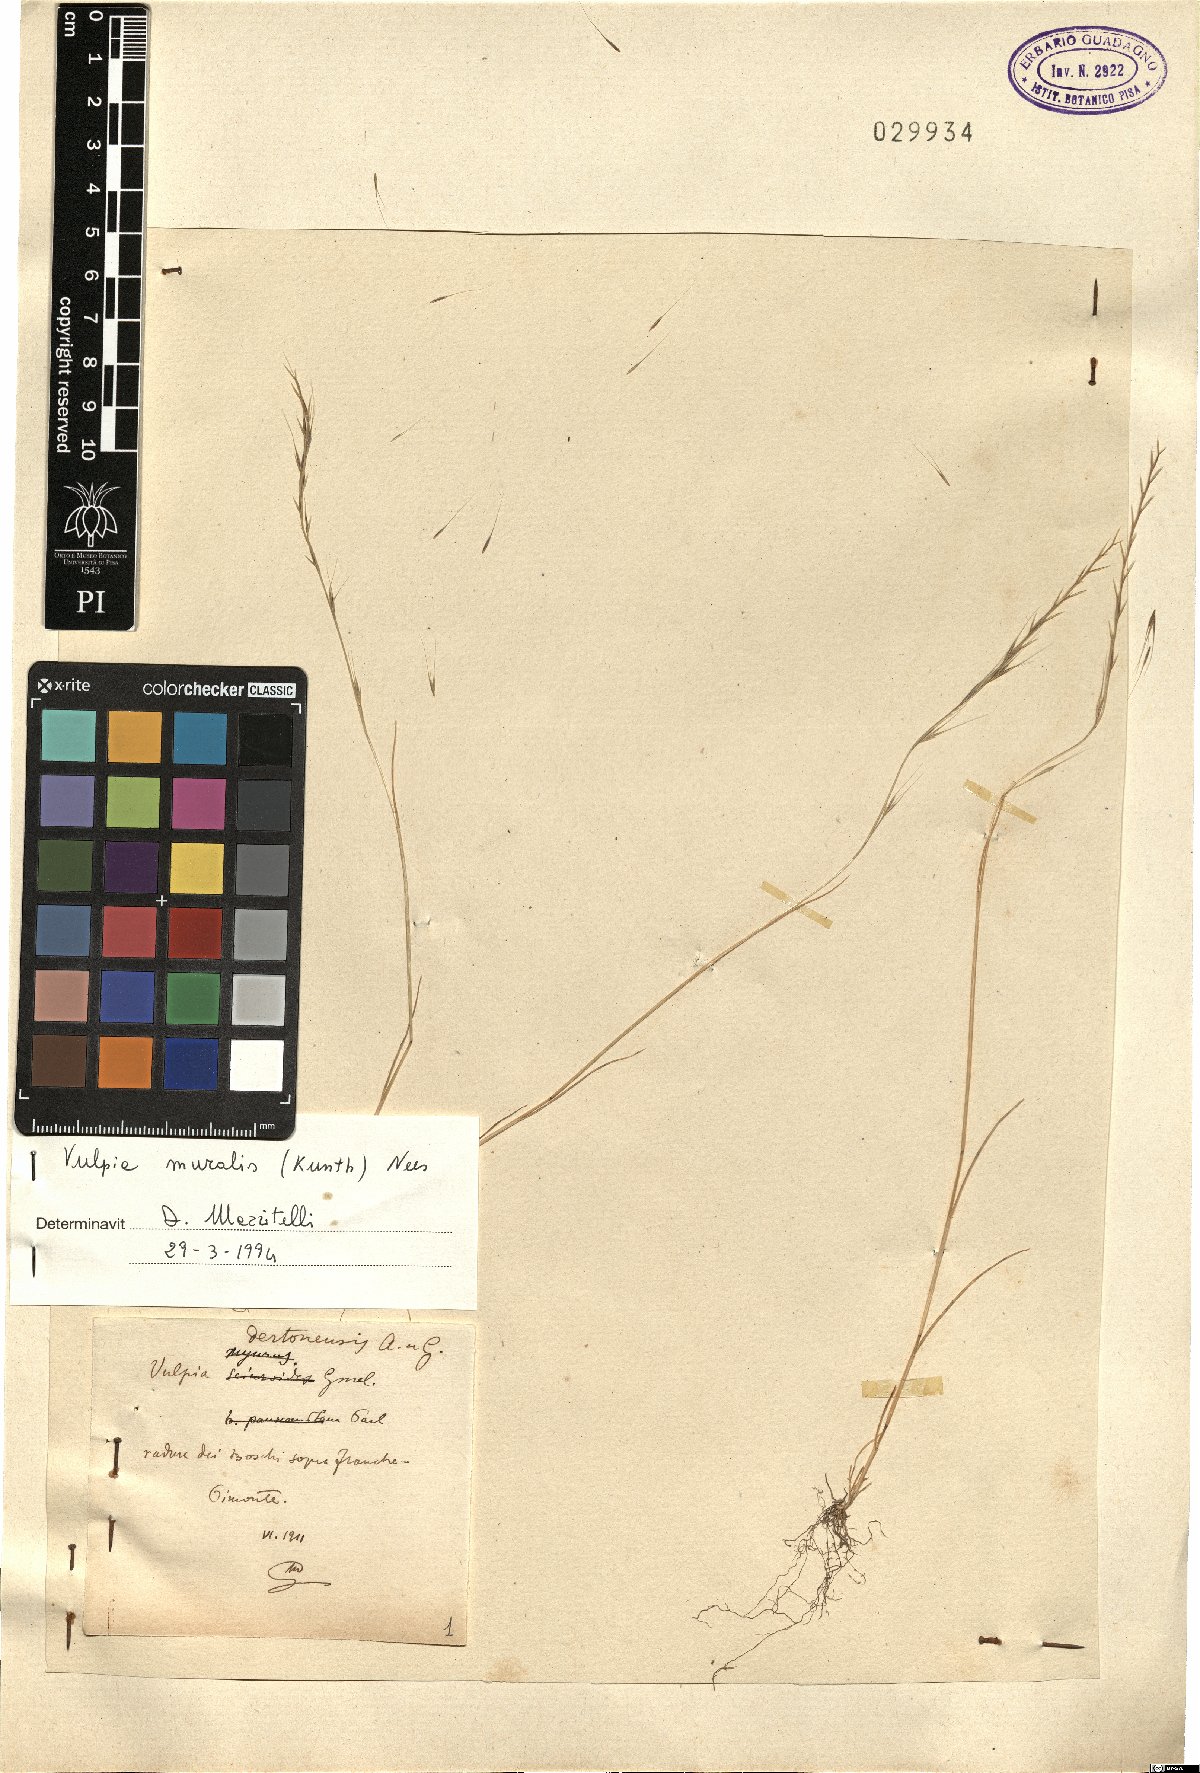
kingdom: Plantae
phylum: Tracheophyta
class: Liliopsida
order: Poales
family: Poaceae
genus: Festuca
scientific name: Festuca muralis
